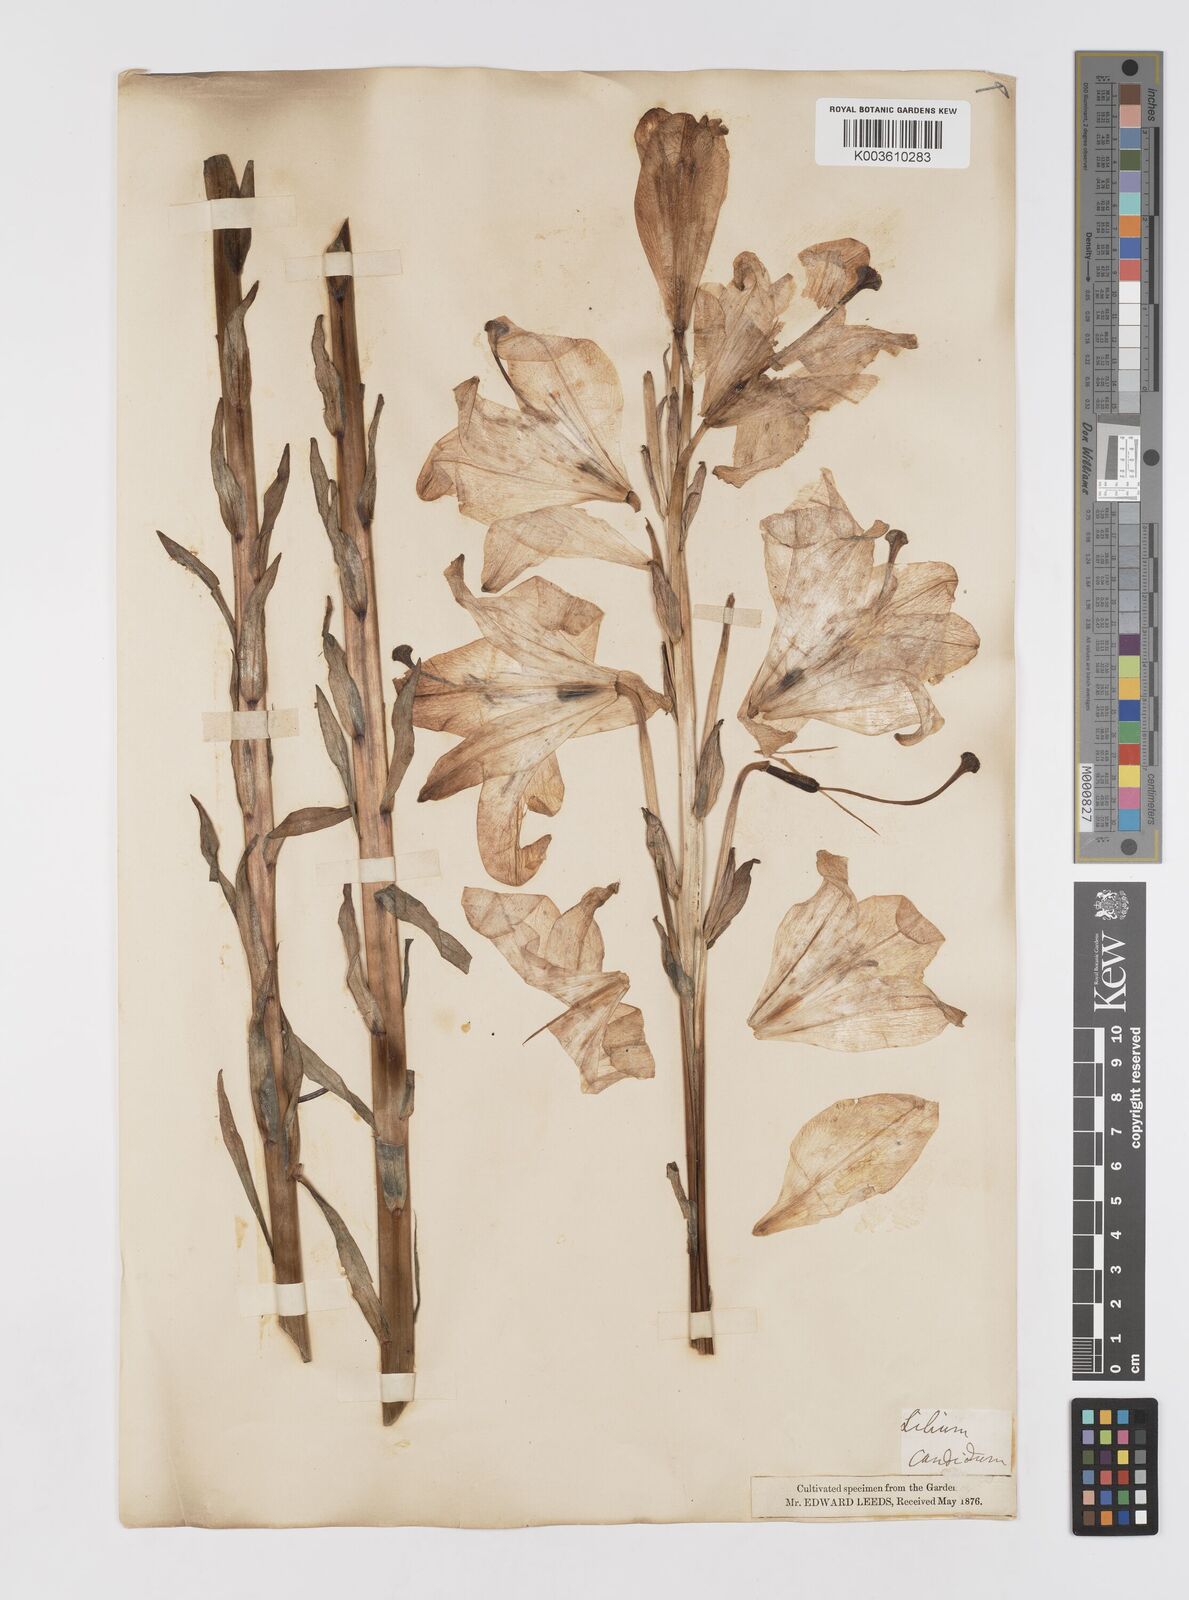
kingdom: Plantae
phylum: Tracheophyta
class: Liliopsida
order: Liliales
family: Liliaceae
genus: Lilium
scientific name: Lilium candidum
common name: Madonna lily
